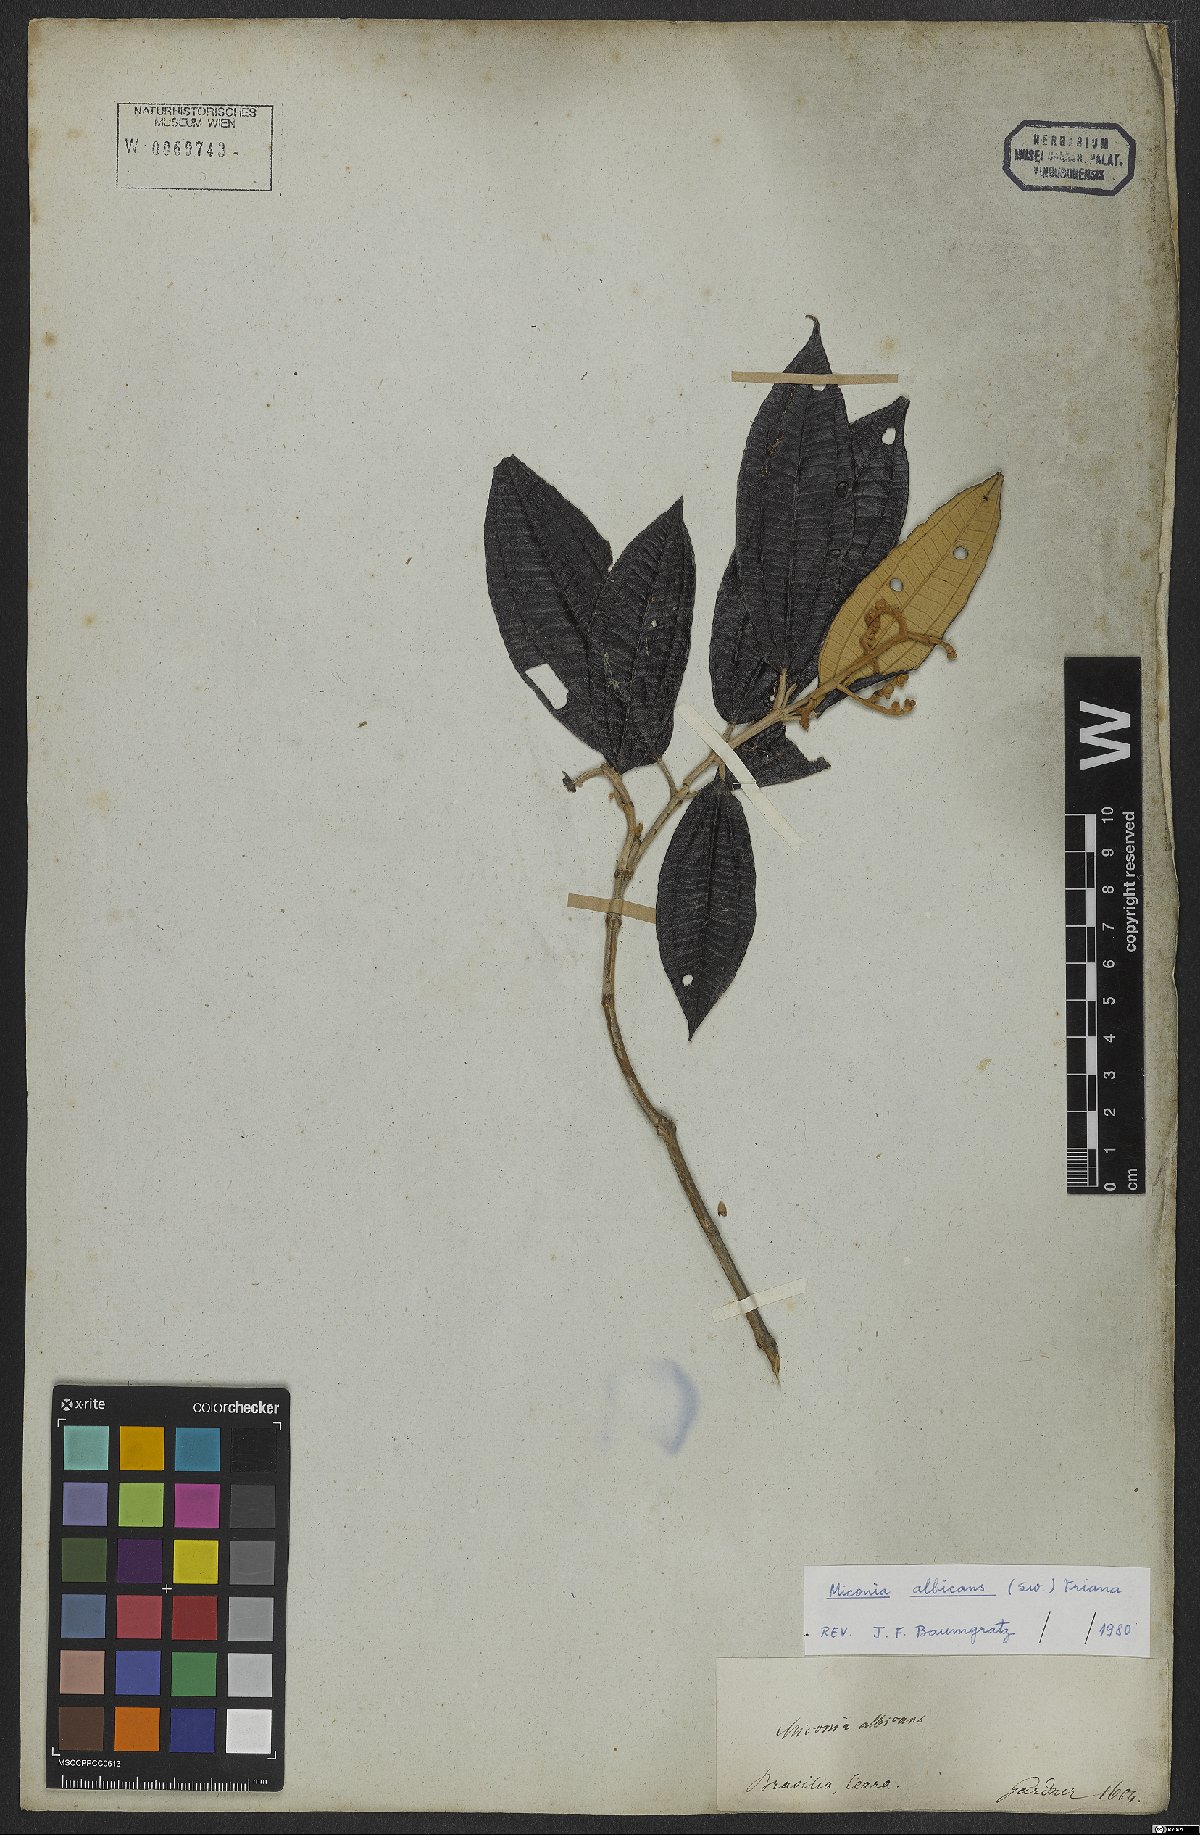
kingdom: Plantae
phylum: Tracheophyta
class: Magnoliopsida
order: Myrtales
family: Melastomataceae
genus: Miconia
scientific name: Miconia albicans
